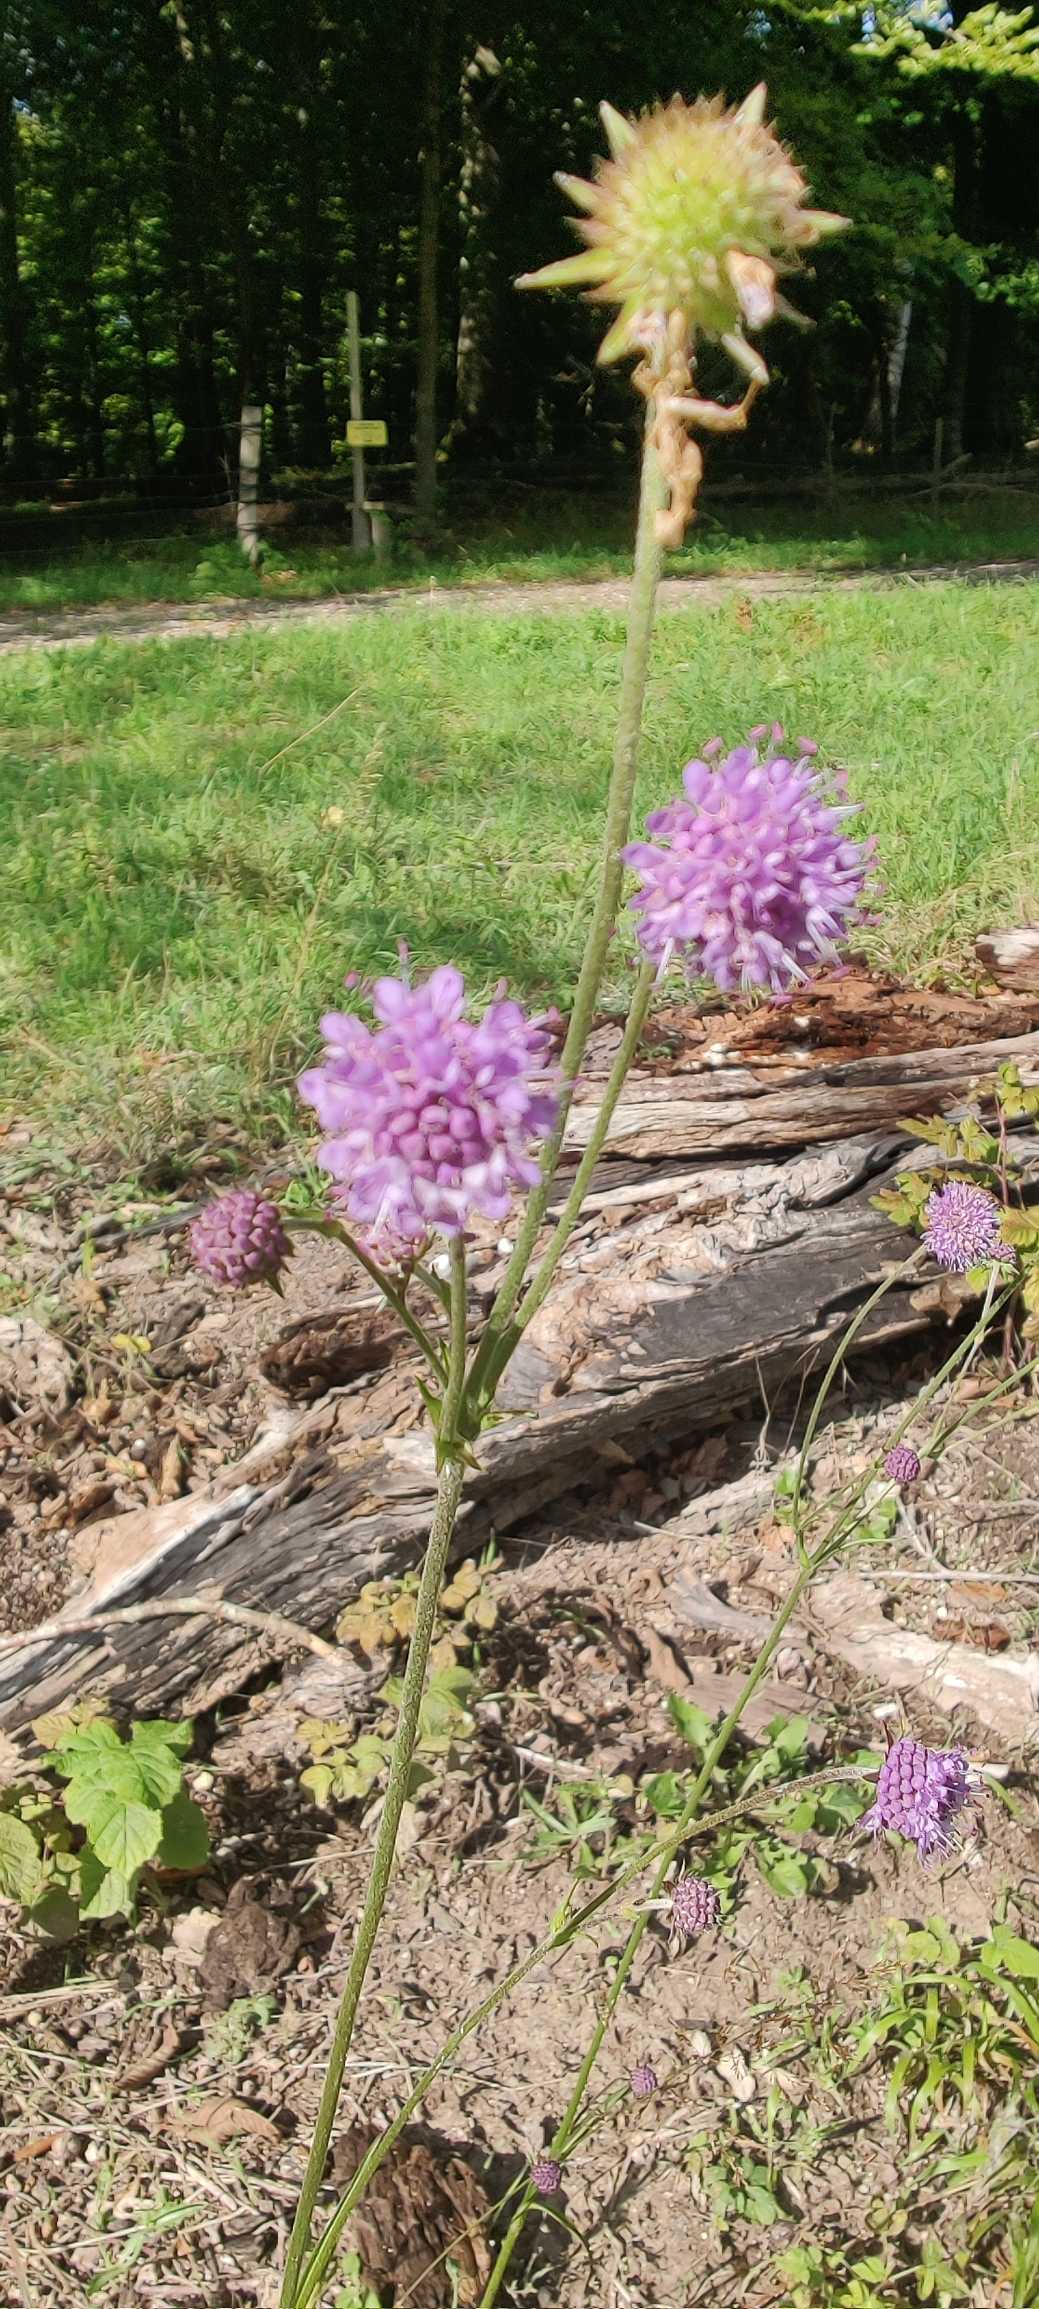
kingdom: Plantae
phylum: Tracheophyta
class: Magnoliopsida
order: Dipsacales
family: Caprifoliaceae
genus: Succisa
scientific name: Succisa pratensis
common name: Djævelsbid
